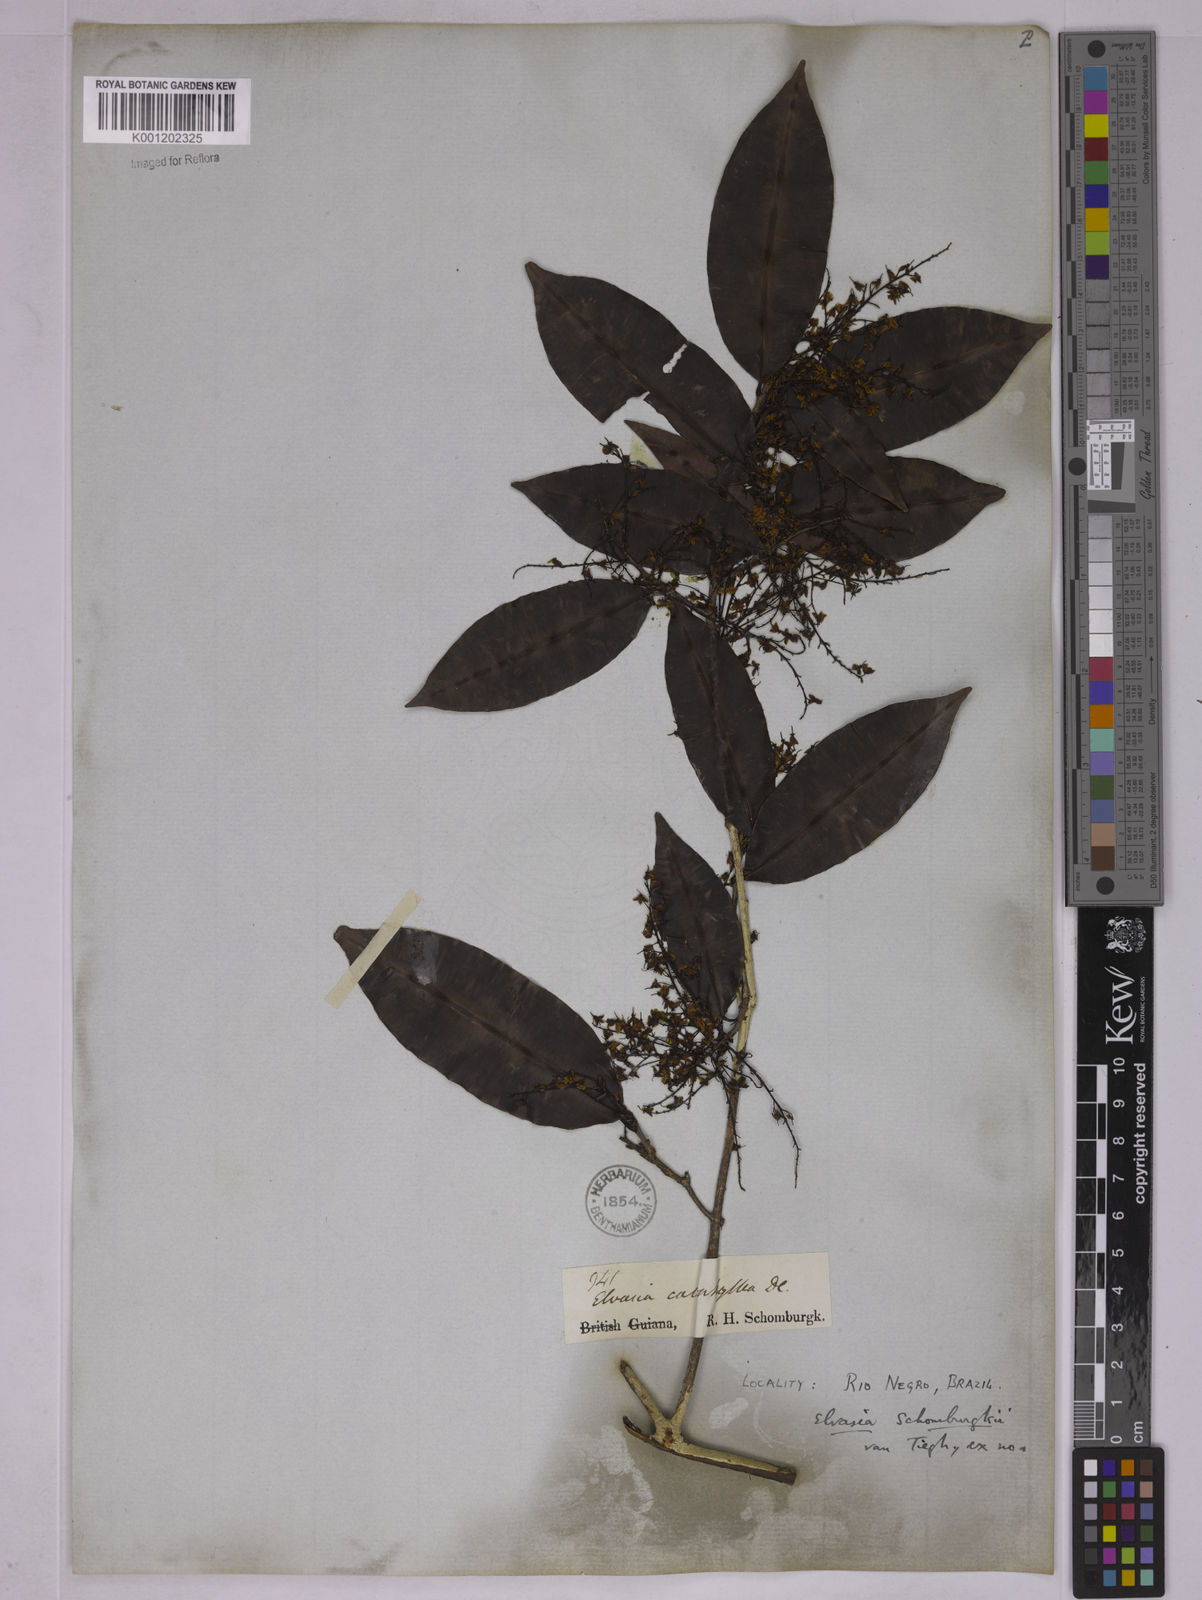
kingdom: Plantae
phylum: Tracheophyta
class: Magnoliopsida
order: Malpighiales
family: Ochnaceae
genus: Elvasia
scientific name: Elvasia calophyllea
